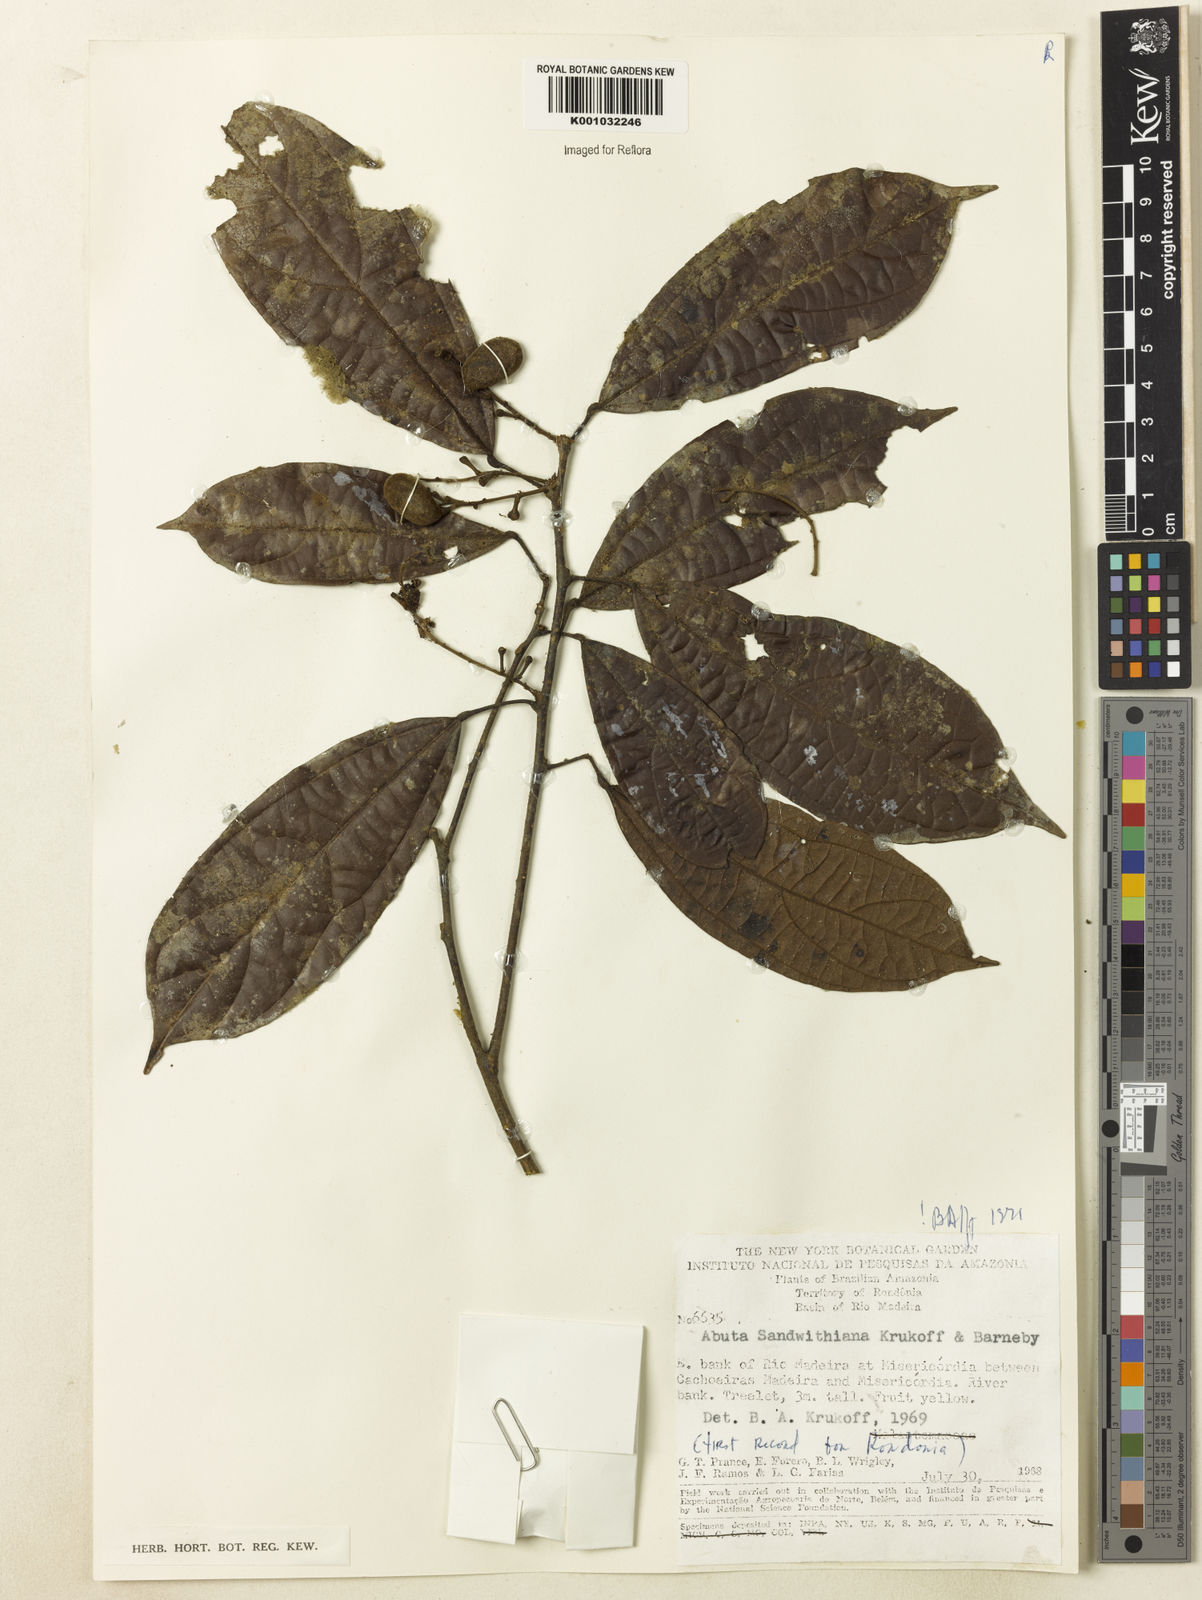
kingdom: Plantae
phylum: Tracheophyta
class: Magnoliopsida
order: Ranunculales
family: Menispermaceae
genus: Abuta
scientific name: Abuta sandwithiana
